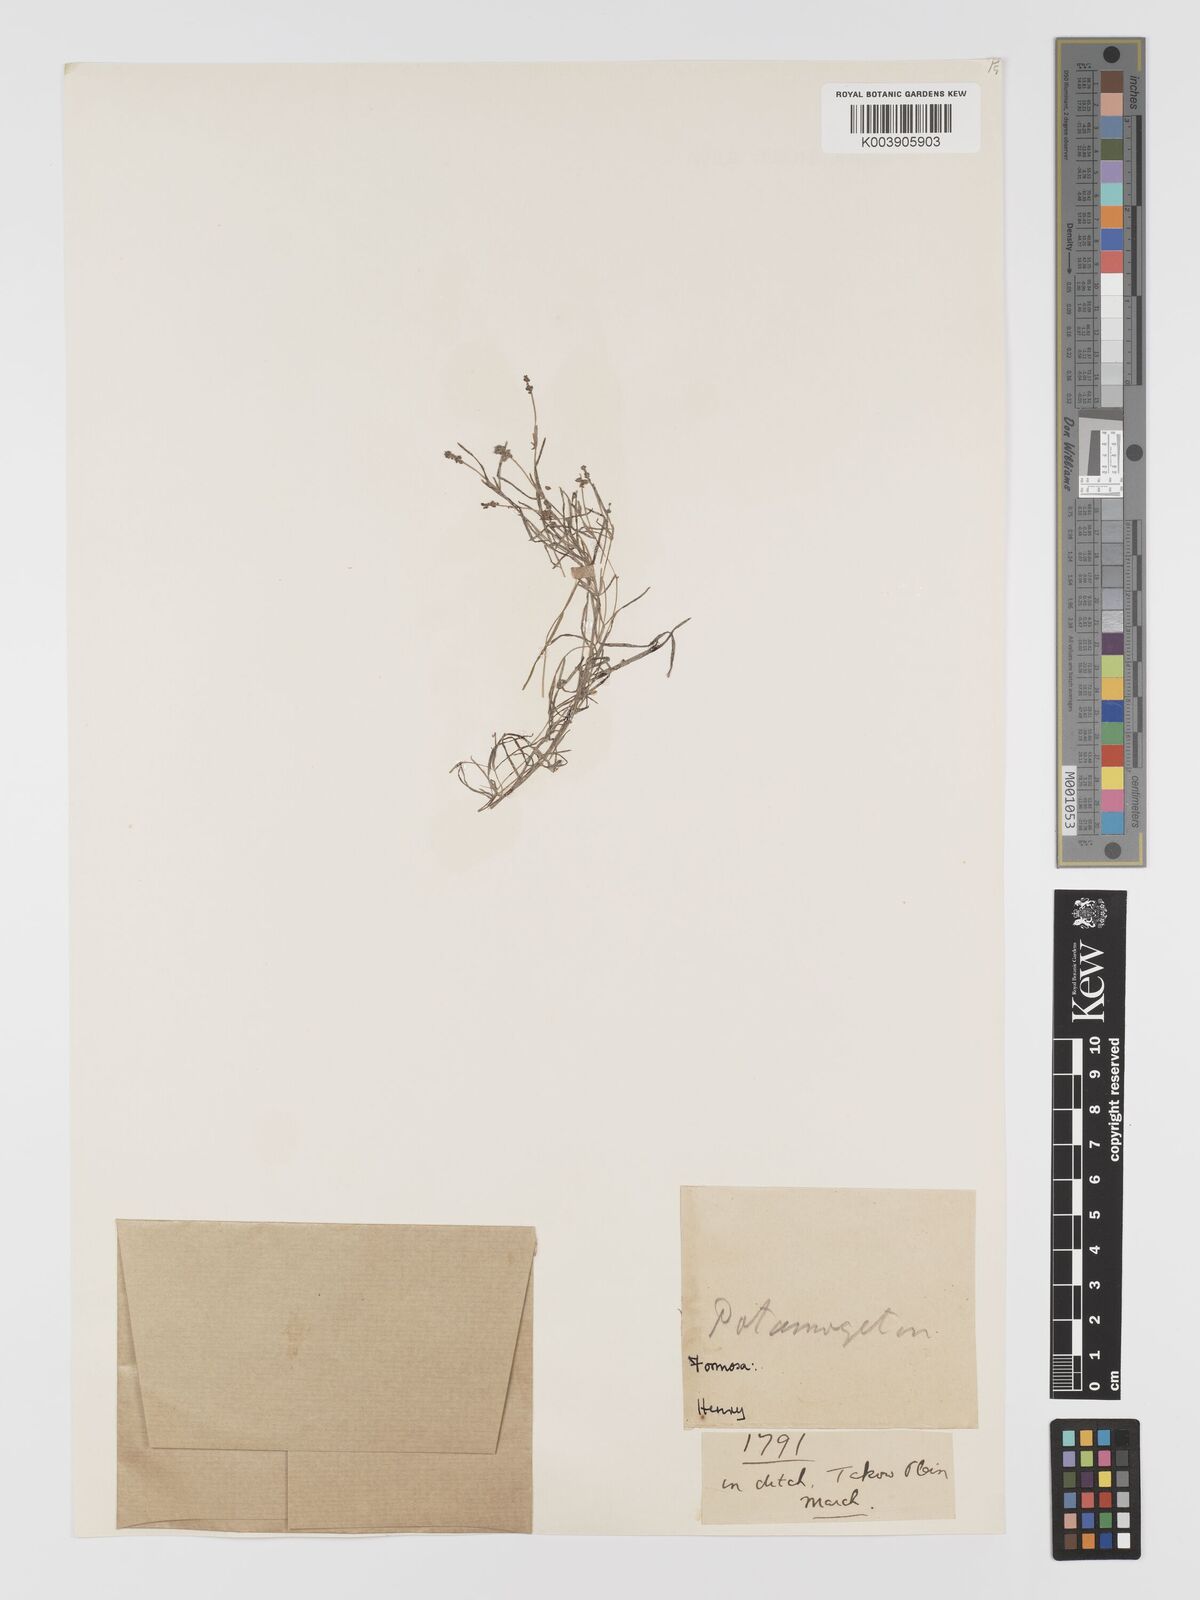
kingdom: Plantae
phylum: Tracheophyta
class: Liliopsida
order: Alismatales
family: Potamogetonaceae
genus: Potamogeton
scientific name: Potamogeton pusillus
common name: Lesser pondweed
